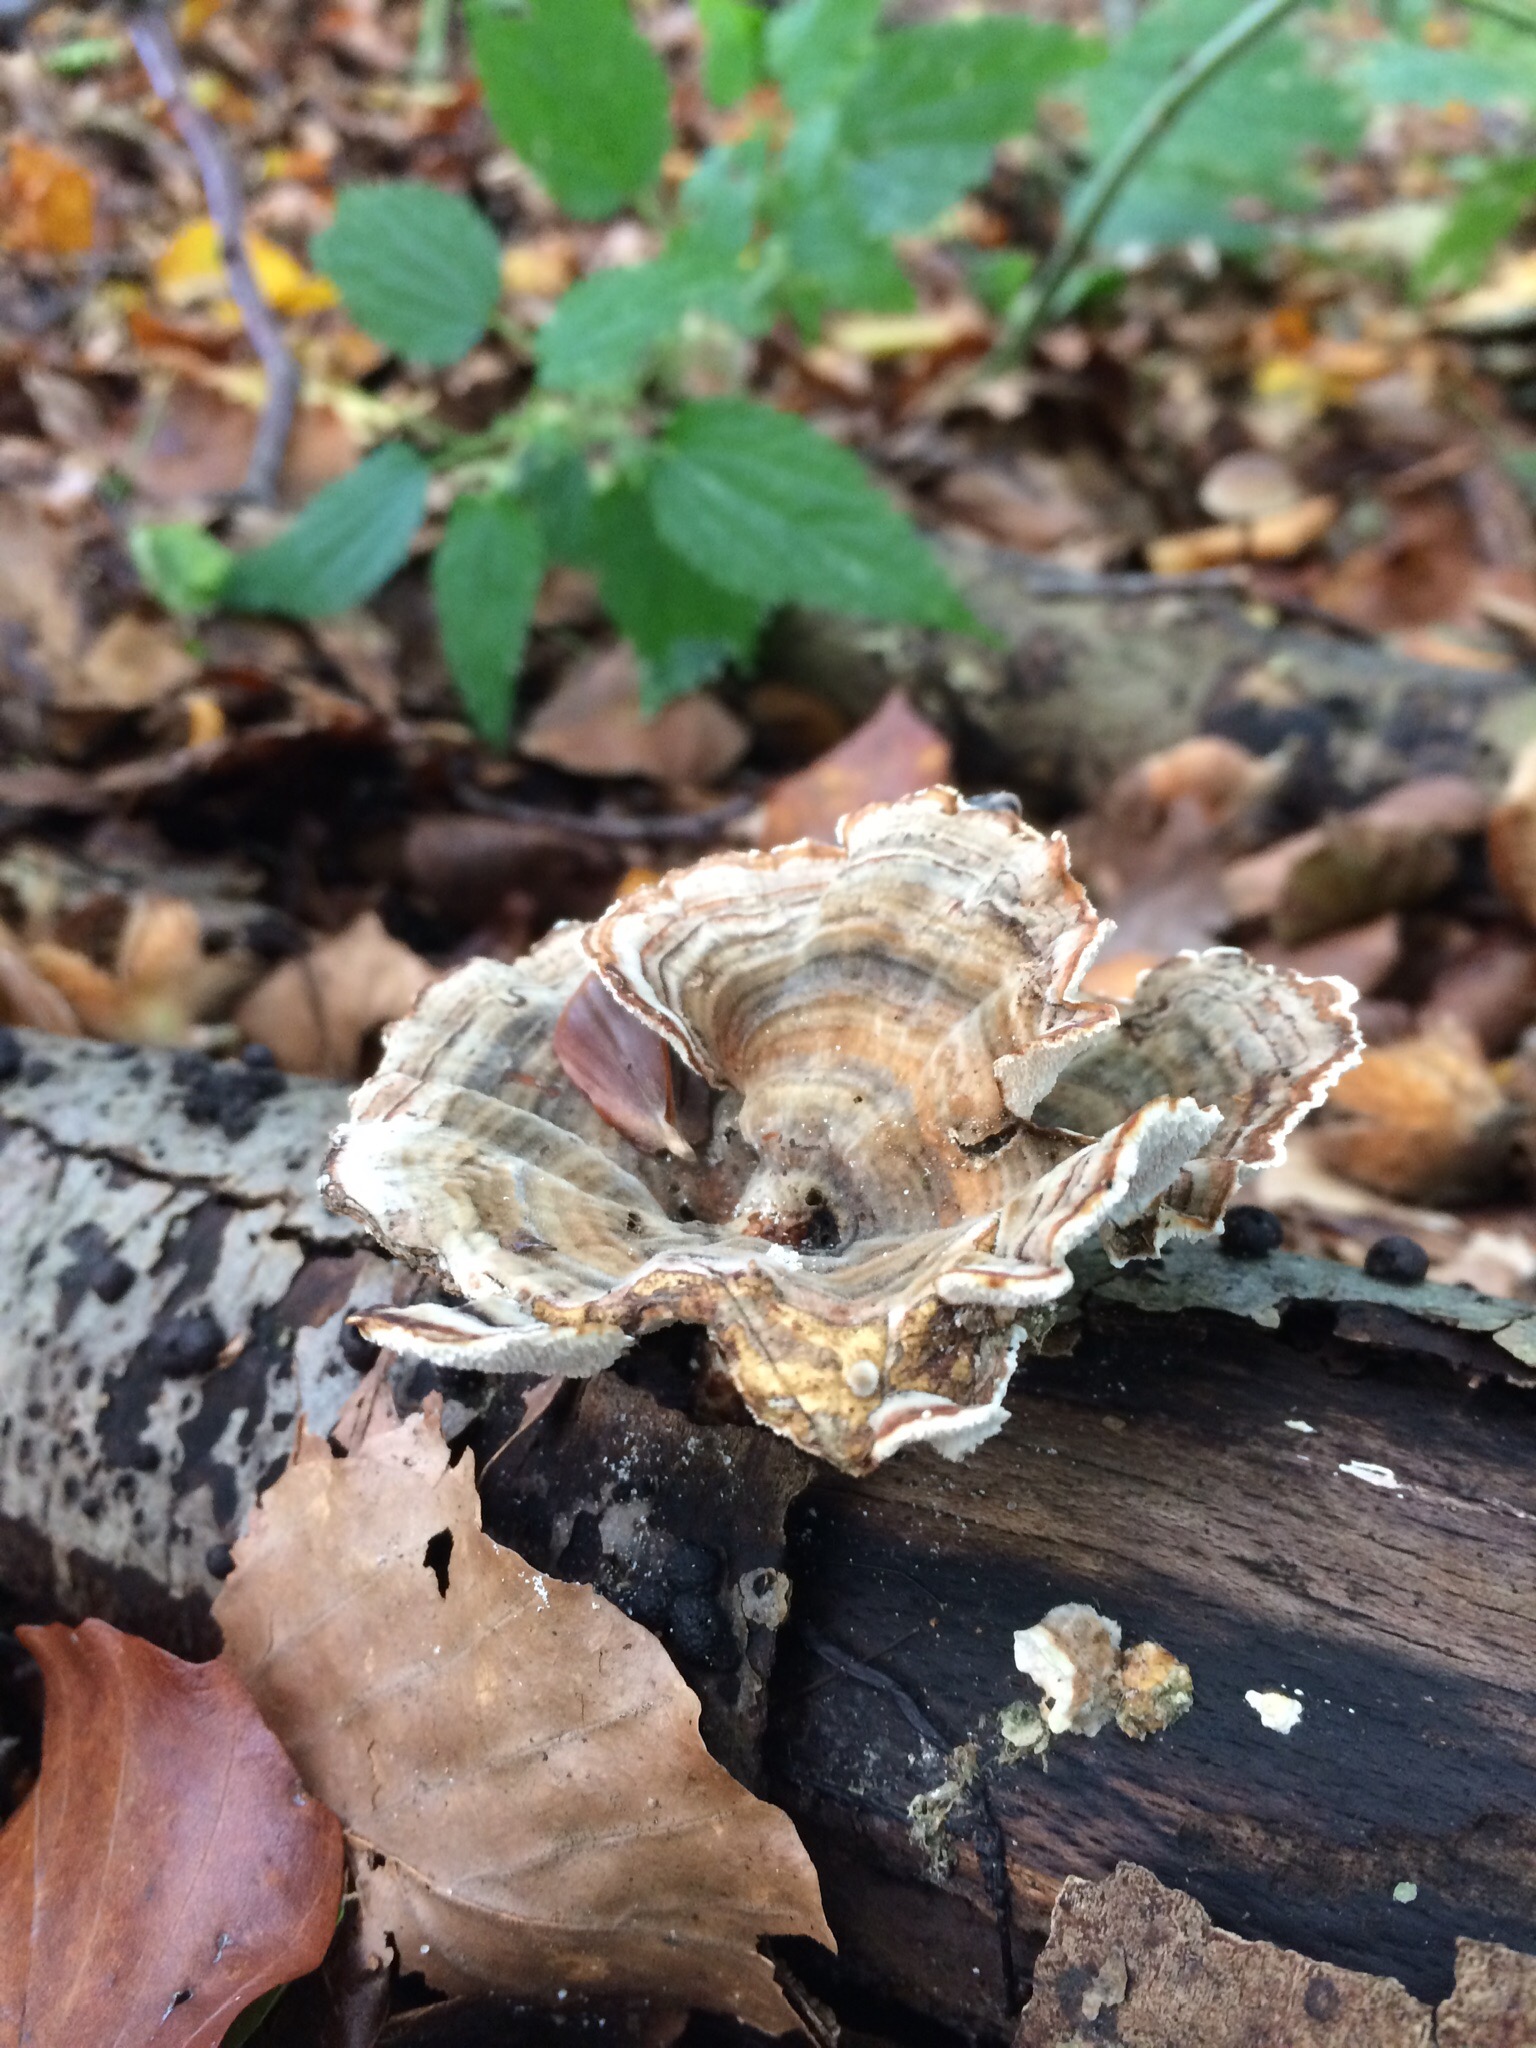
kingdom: Fungi
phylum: Basidiomycota
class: Agaricomycetes
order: Polyporales
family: Polyporaceae
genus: Trametes
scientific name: Trametes versicolor
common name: broget læderporesvamp
